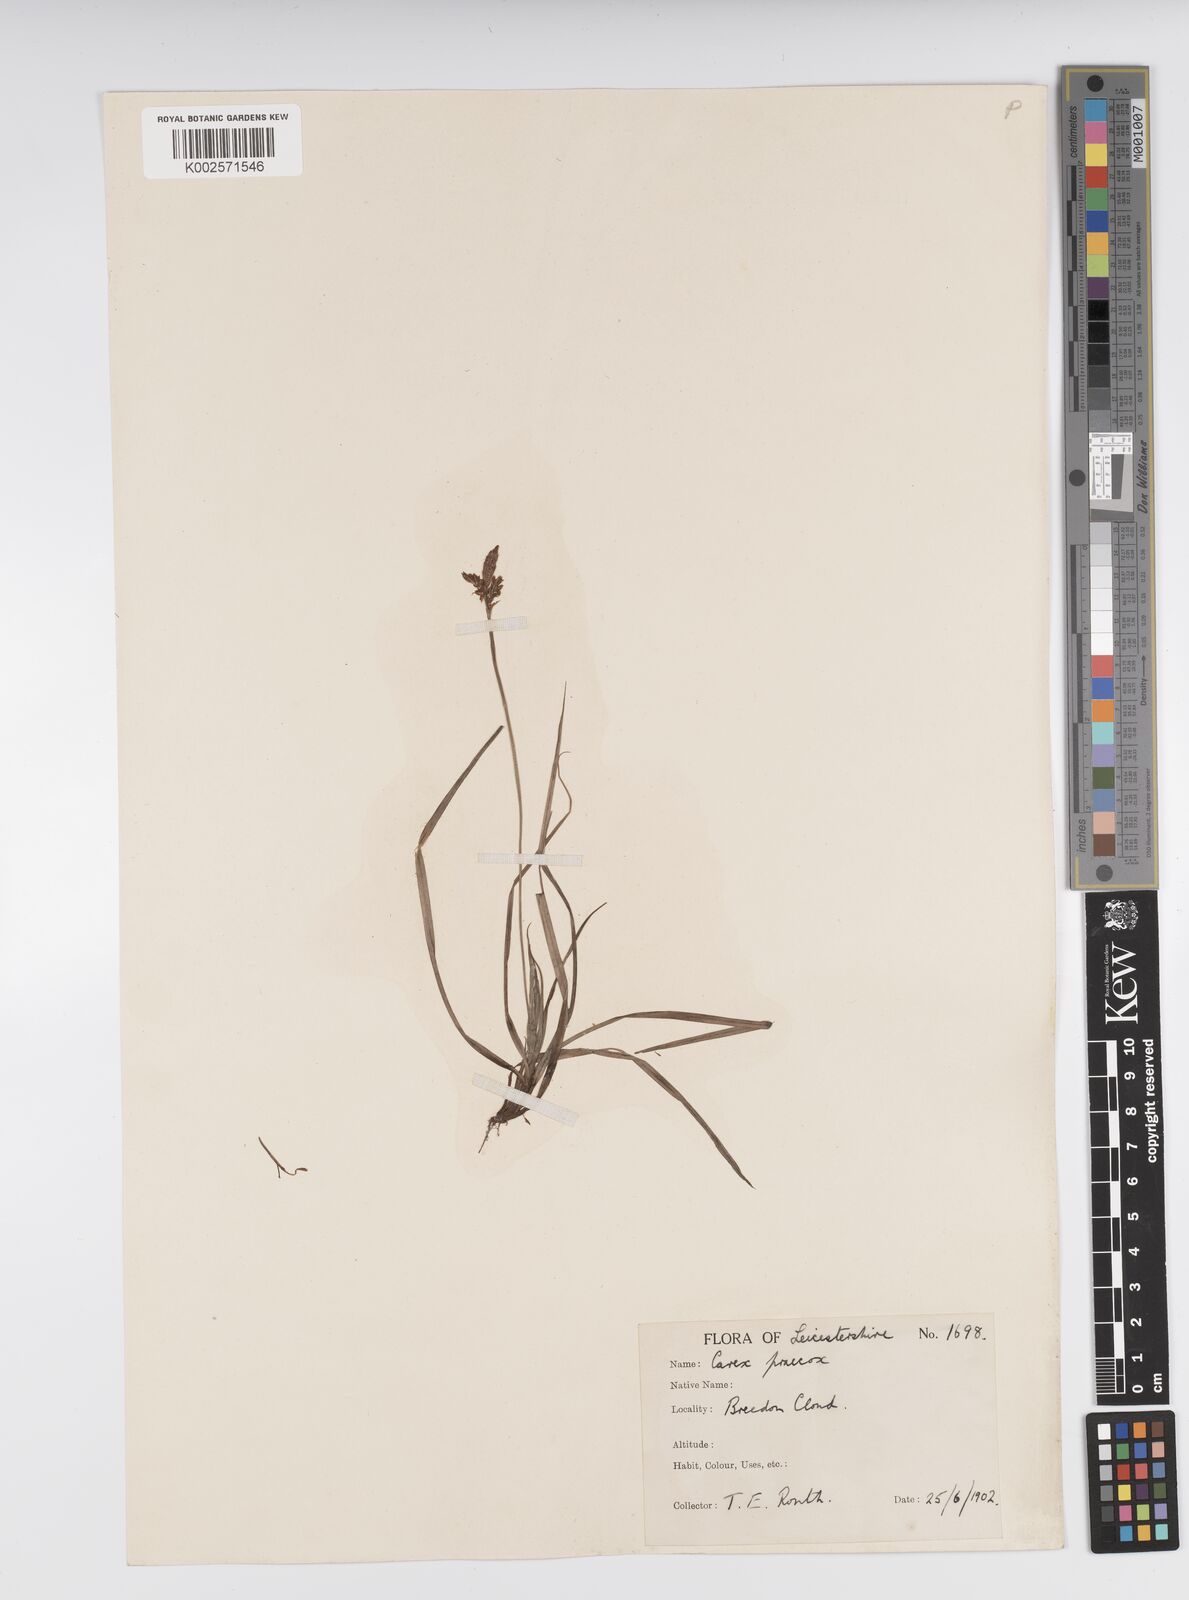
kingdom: Plantae
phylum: Tracheophyta
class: Liliopsida
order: Poales
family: Cyperaceae
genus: Carex
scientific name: Carex caryophyllea
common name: Spring sedge
